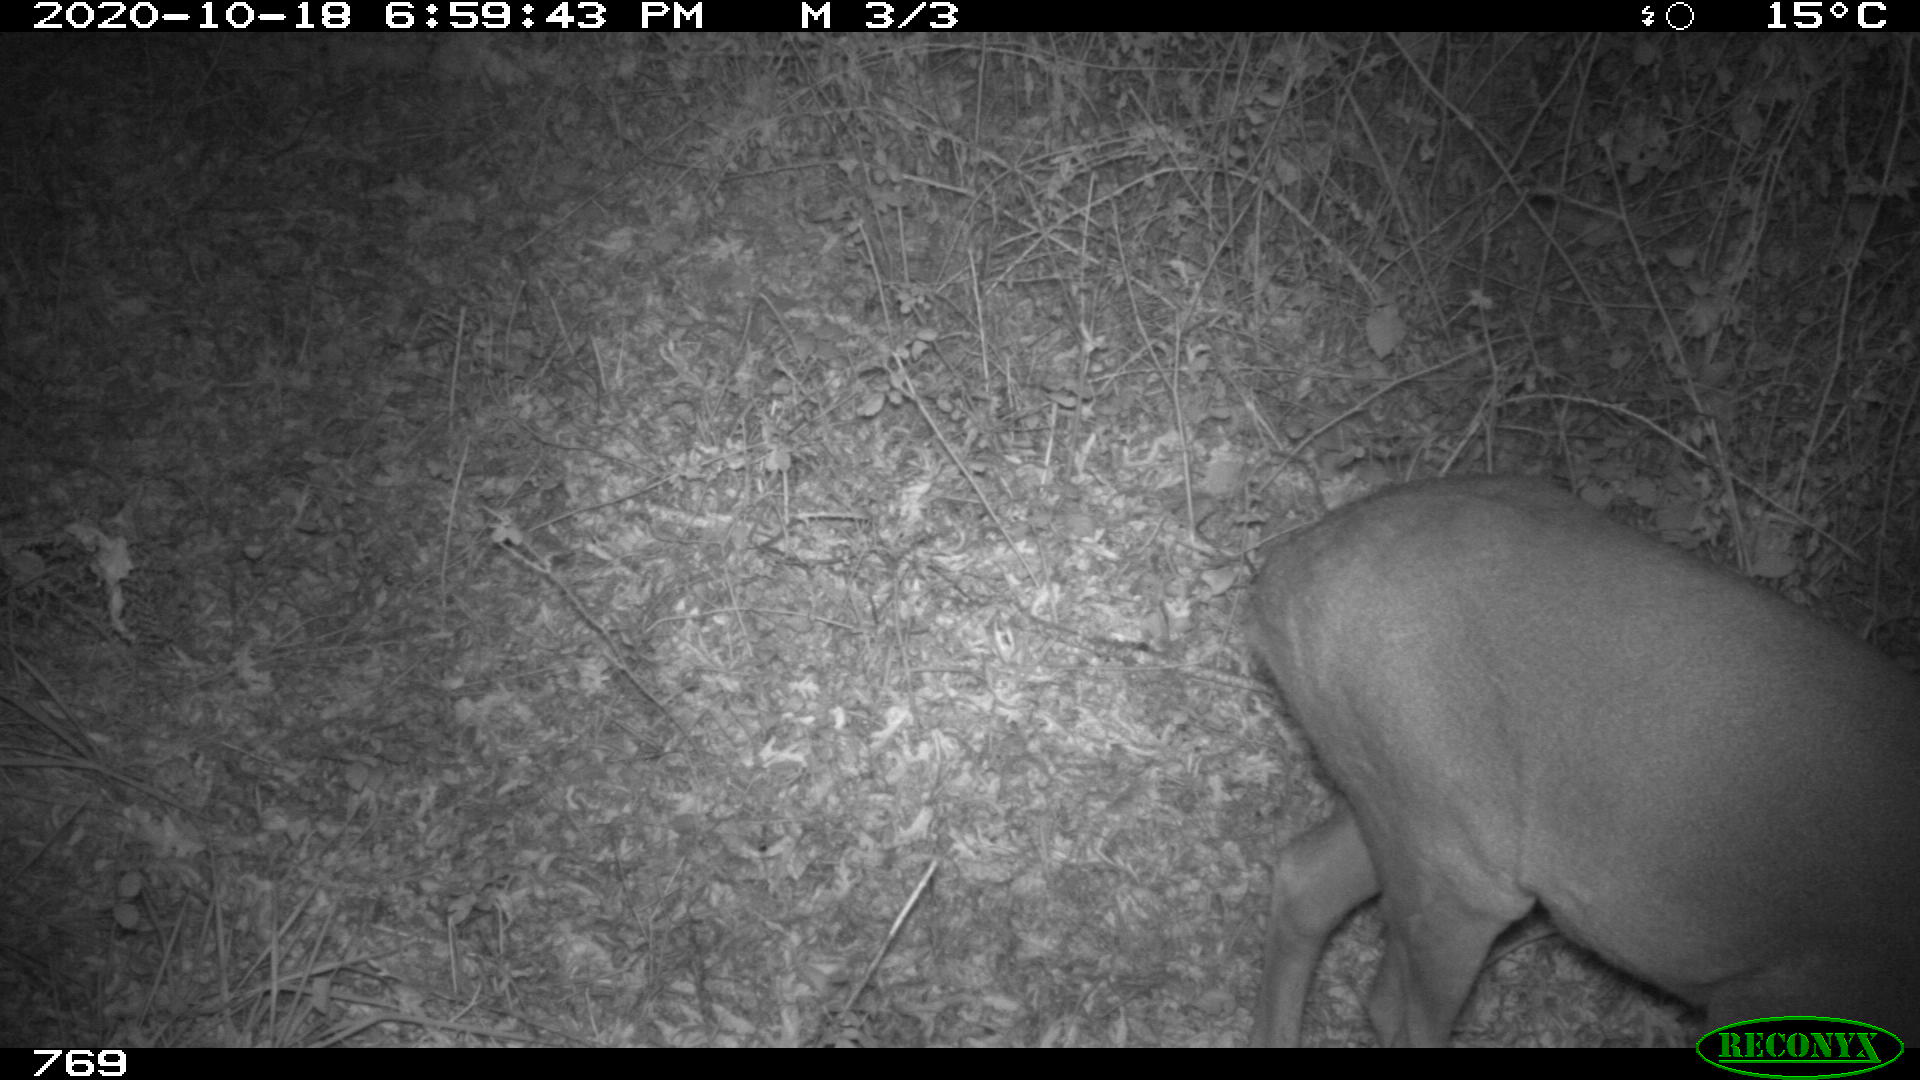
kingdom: Animalia
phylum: Chordata
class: Mammalia
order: Artiodactyla
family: Cervidae
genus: Capreolus
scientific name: Capreolus capreolus
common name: Western roe deer
